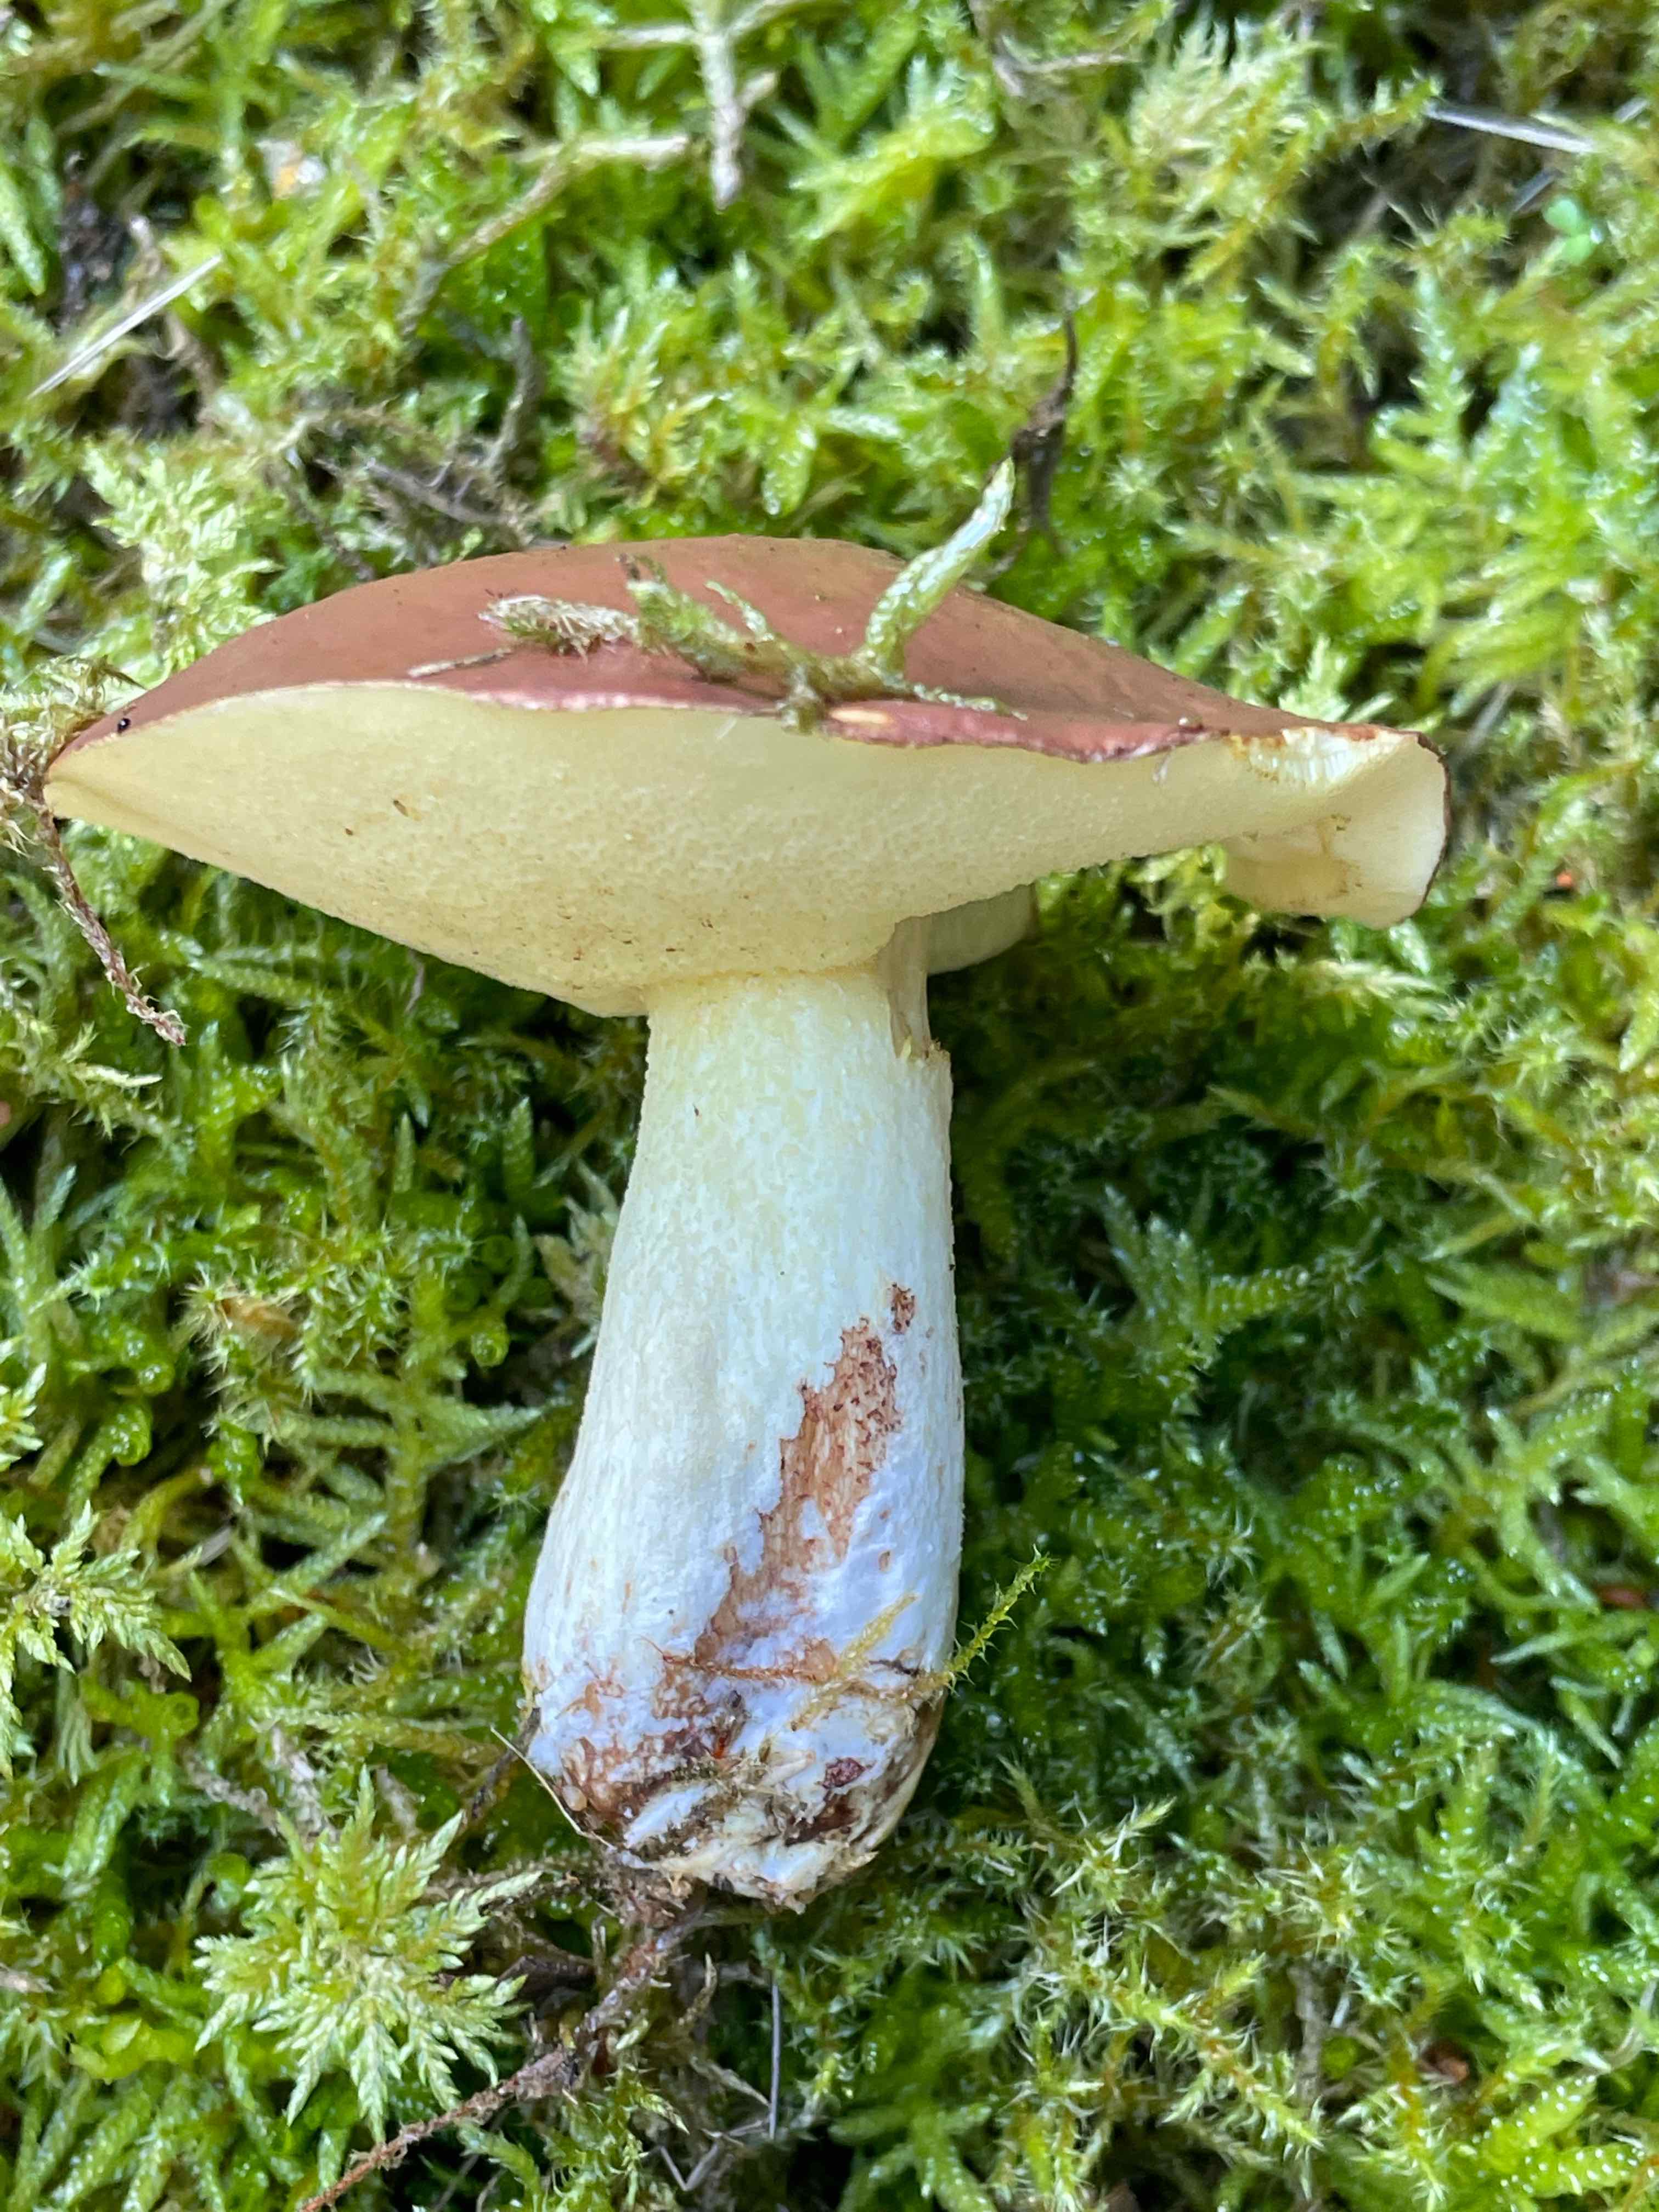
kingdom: Fungi
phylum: Basidiomycota
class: Agaricomycetes
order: Boletales
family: Suillaceae
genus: Suillus
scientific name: Suillus granulatus
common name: kornet slimrørhat
